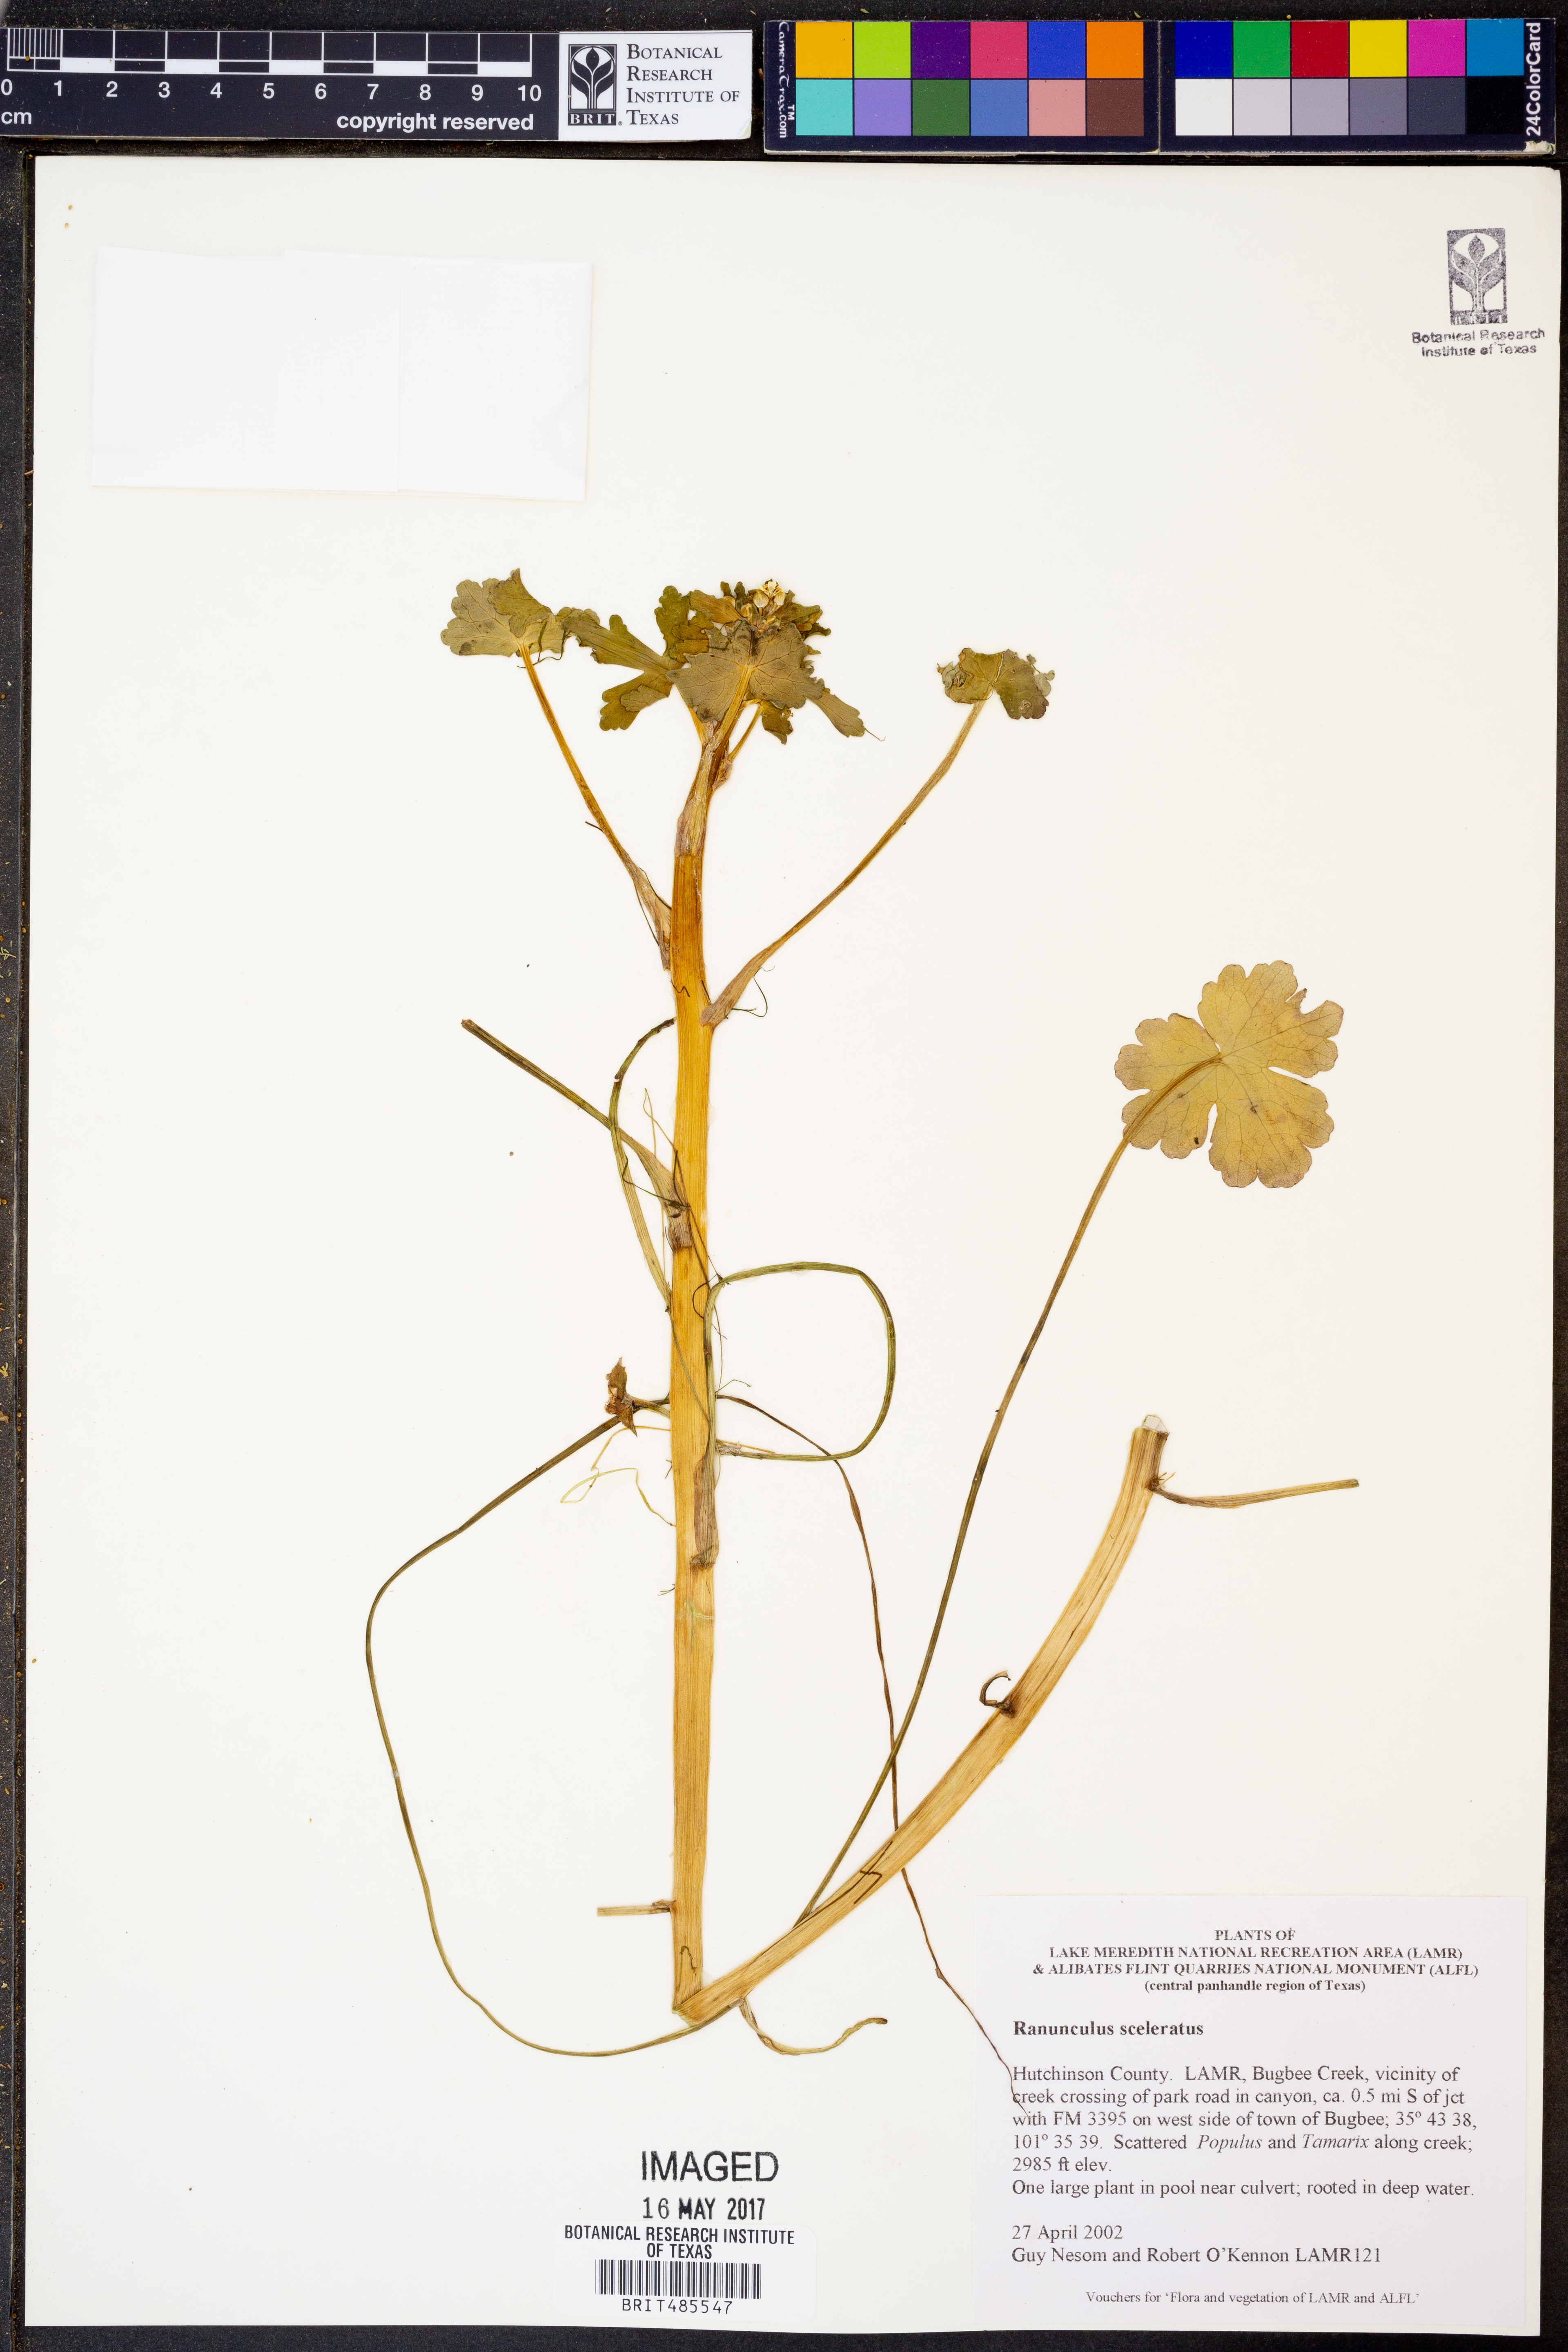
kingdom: Plantae
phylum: Tracheophyta
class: Magnoliopsida
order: Ranunculales
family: Ranunculaceae
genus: Ranunculus
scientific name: Ranunculus sceleratus
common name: Celery-leaved buttercup
